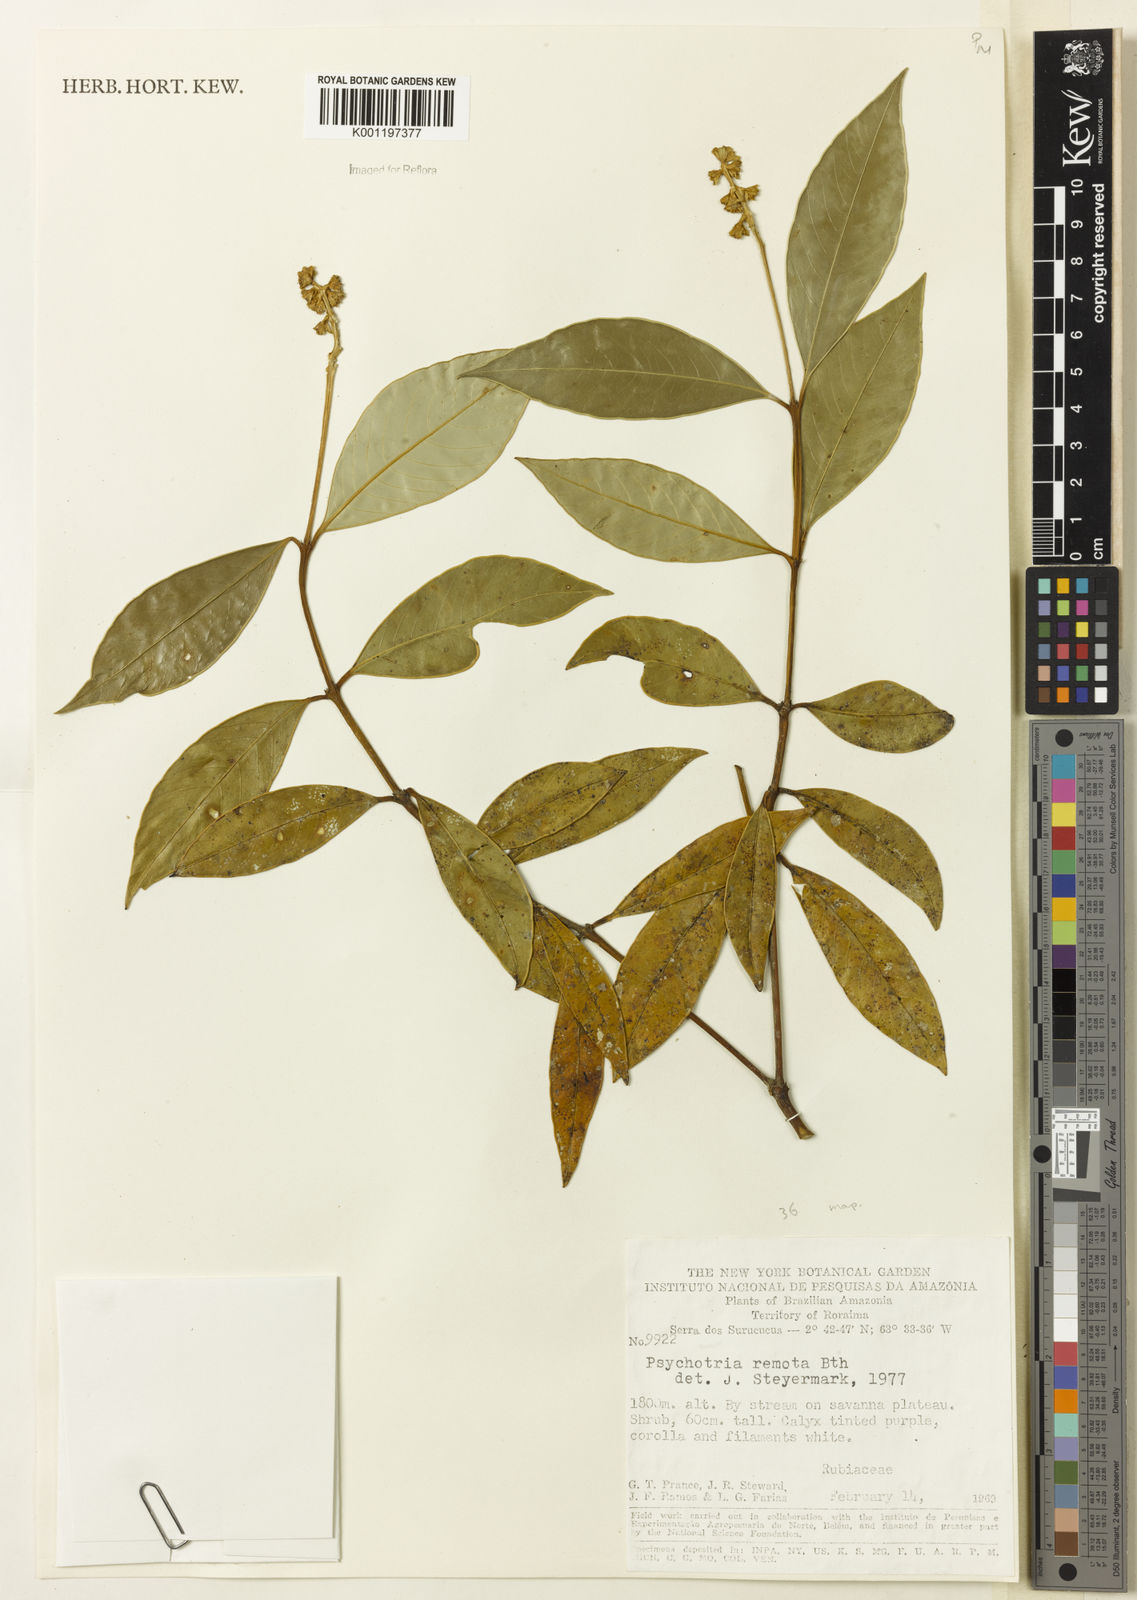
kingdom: Plantae
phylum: Tracheophyta
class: Magnoliopsida
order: Gentianales
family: Rubiaceae
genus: Psychotria
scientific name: Psychotria remota
